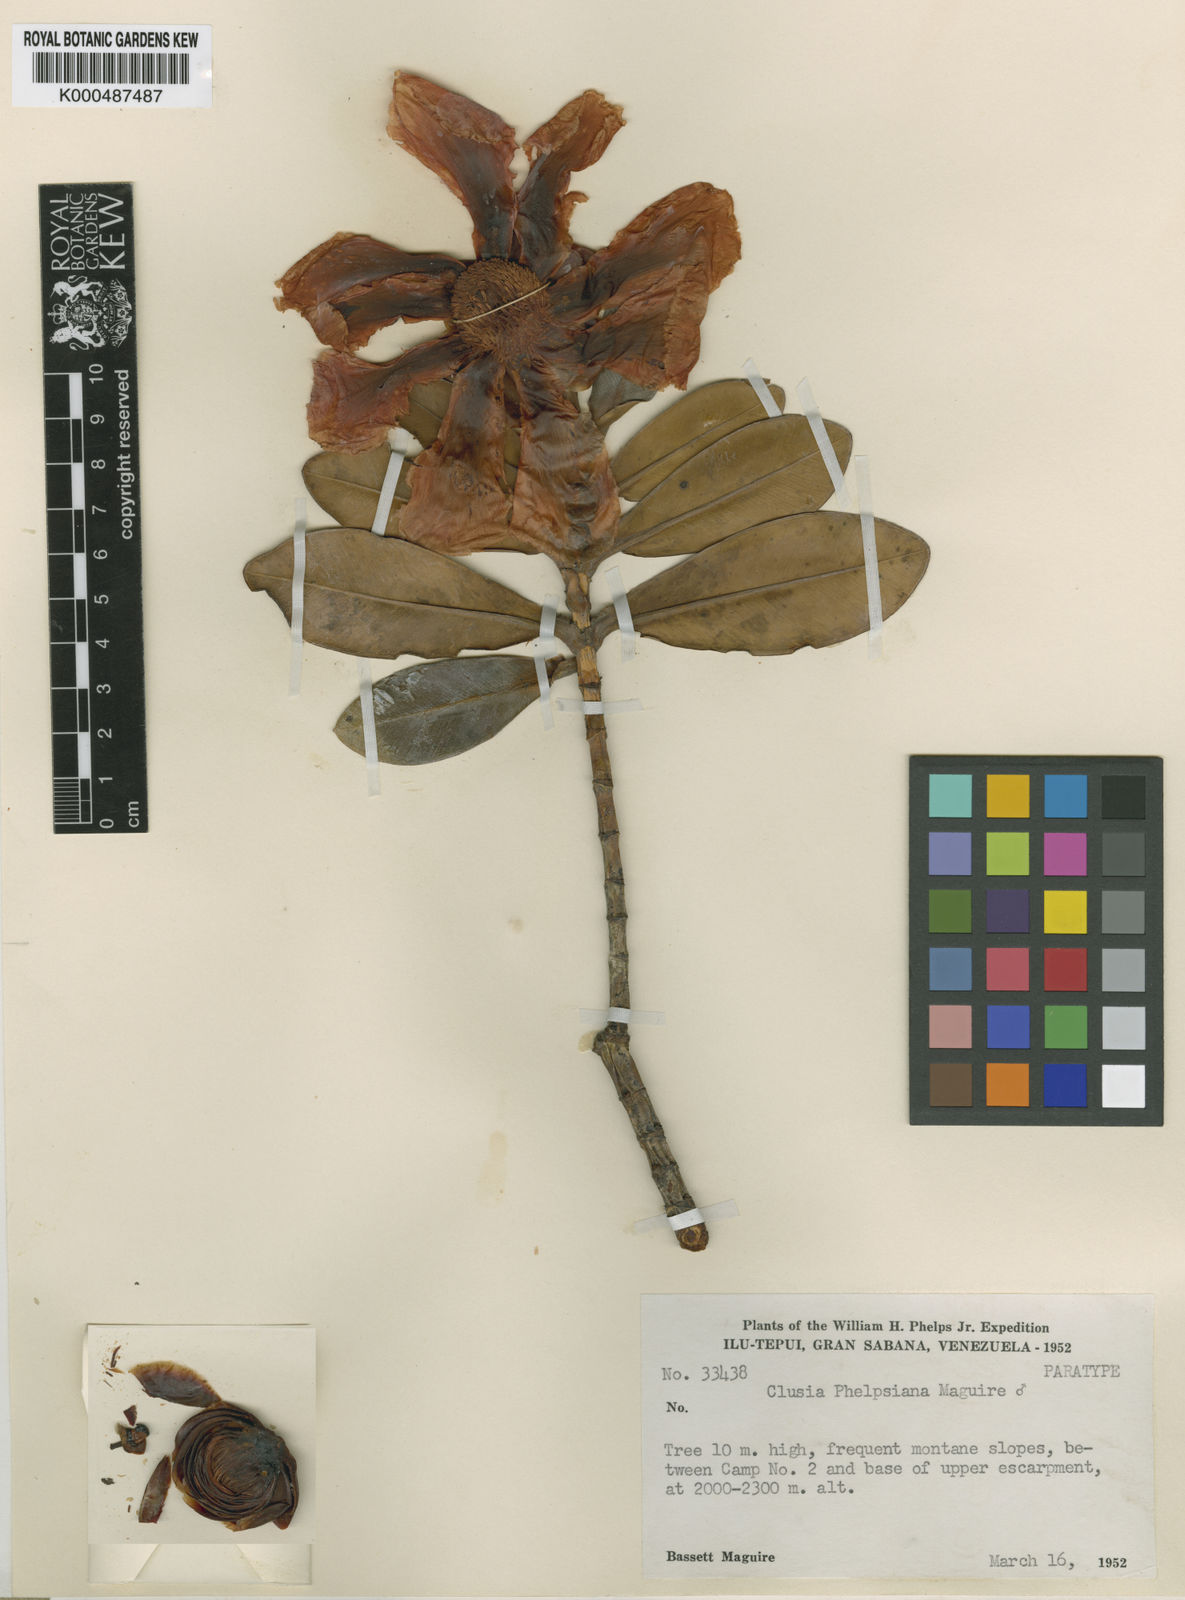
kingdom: Plantae
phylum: Tracheophyta
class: Magnoliopsida
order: Malpighiales
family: Clusiaceae
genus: Clusia
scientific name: Clusia phelpsiana
